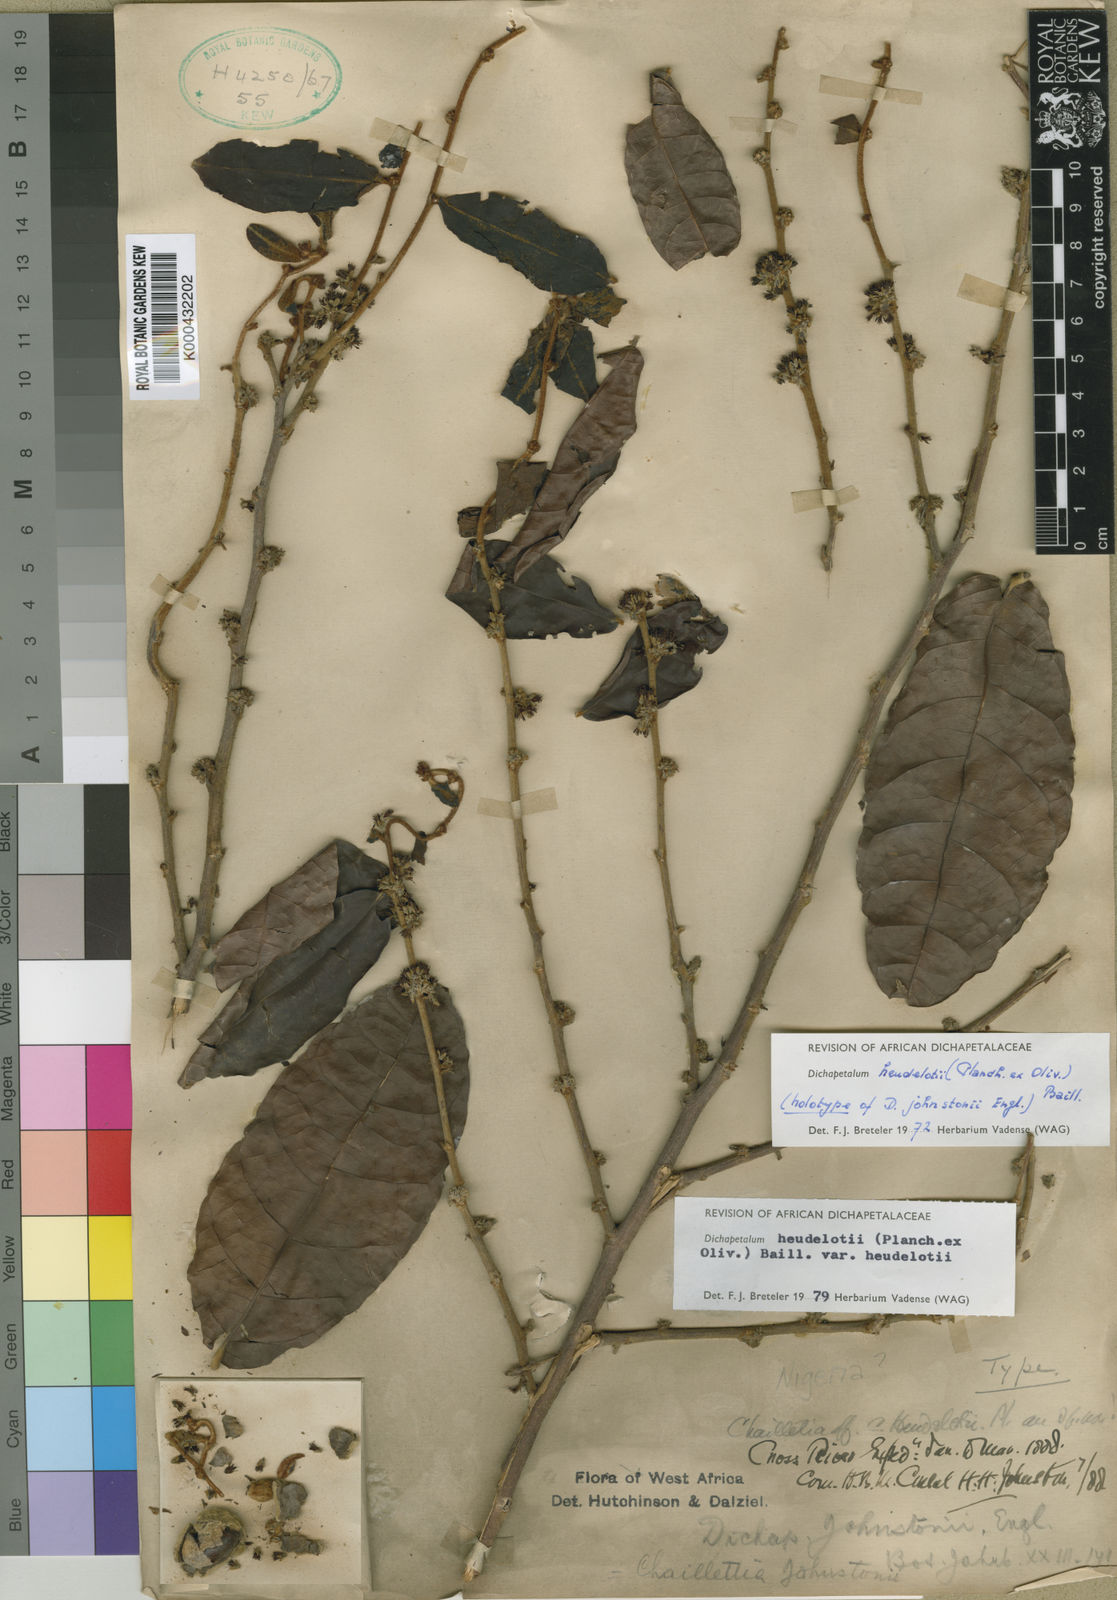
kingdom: Plantae
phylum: Tracheophyta
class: Magnoliopsida
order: Malpighiales
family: Dichapetalaceae
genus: Dichapetalum
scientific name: Dichapetalum heudelotii
